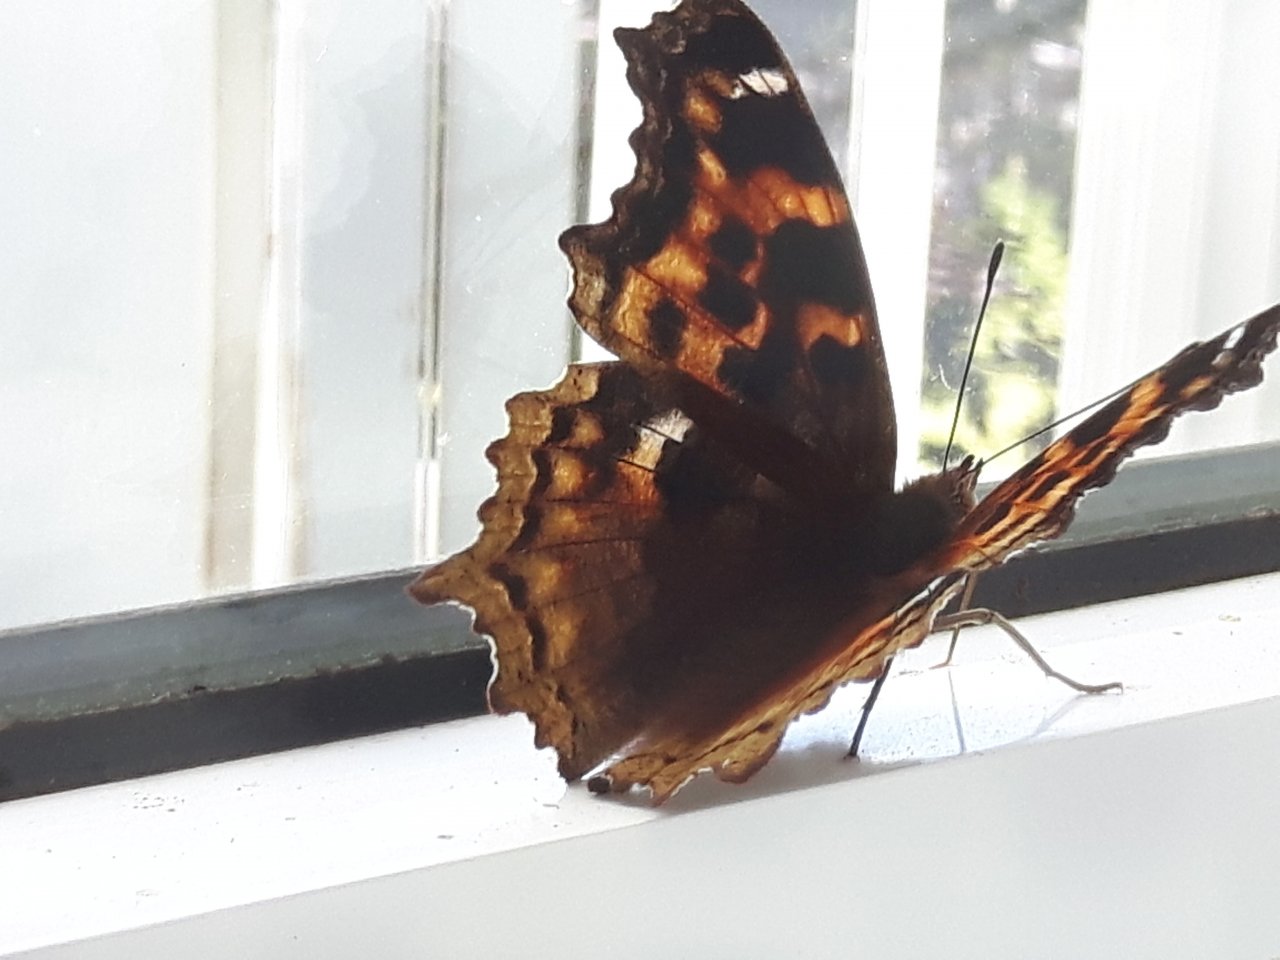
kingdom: Animalia
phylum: Arthropoda
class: Insecta
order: Lepidoptera
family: Nymphalidae
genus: Polygonia
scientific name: Polygonia vaualbum
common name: Compton Tortoiseshell
